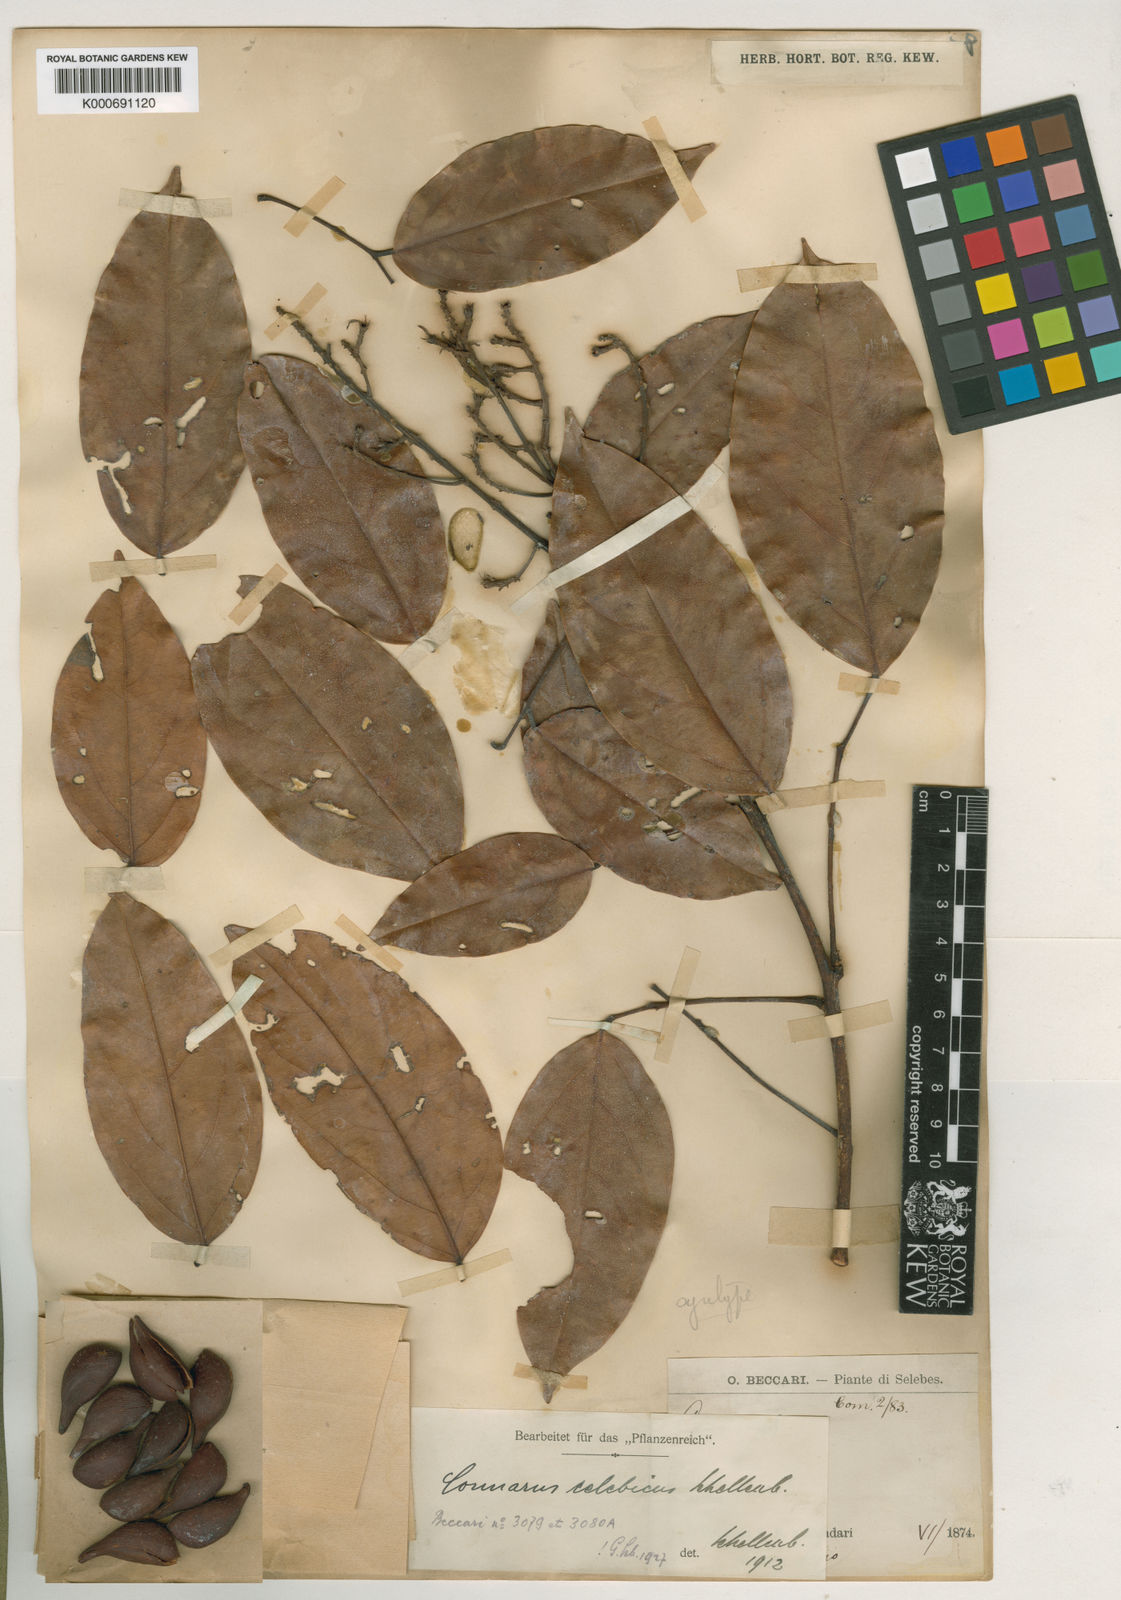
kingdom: Plantae
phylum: Tracheophyta
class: Magnoliopsida
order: Oxalidales
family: Connaraceae
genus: Connarus
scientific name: Connarus semidecandrus
